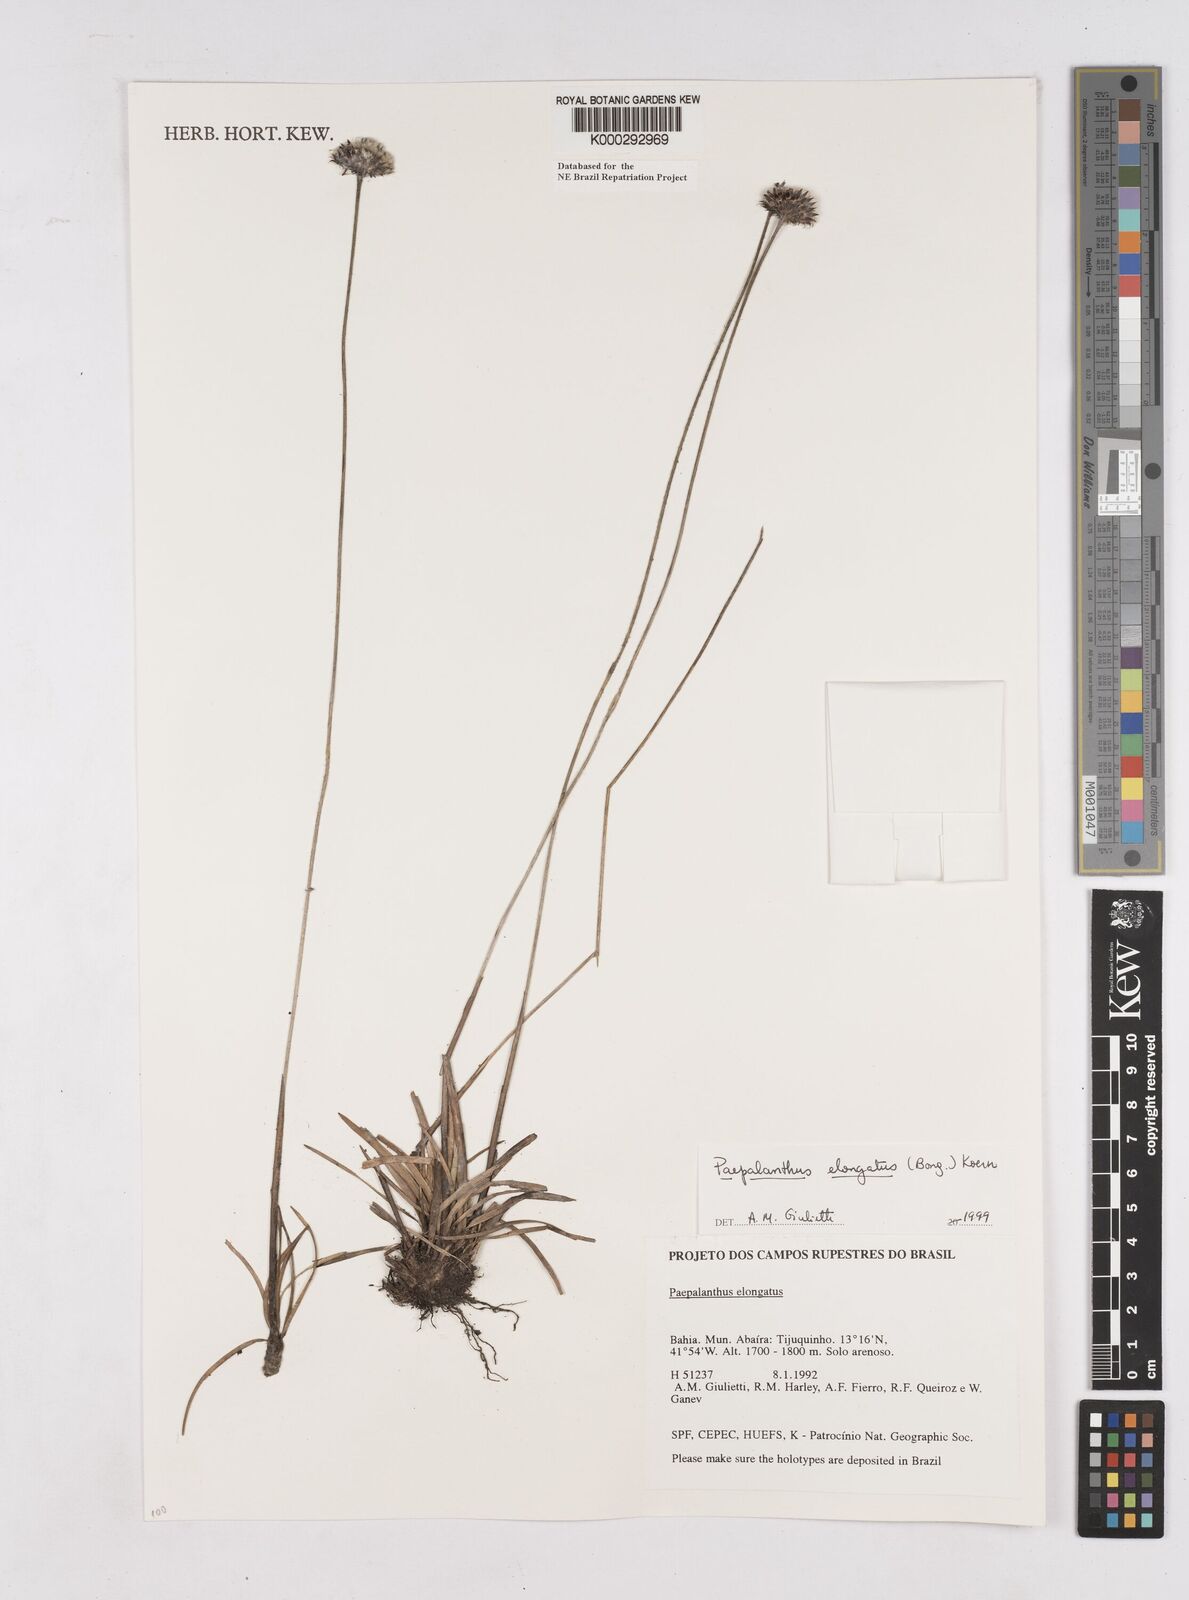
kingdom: Plantae
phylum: Tracheophyta
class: Liliopsida
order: Poales
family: Eriocaulaceae
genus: Paepalanthus
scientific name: Paepalanthus
